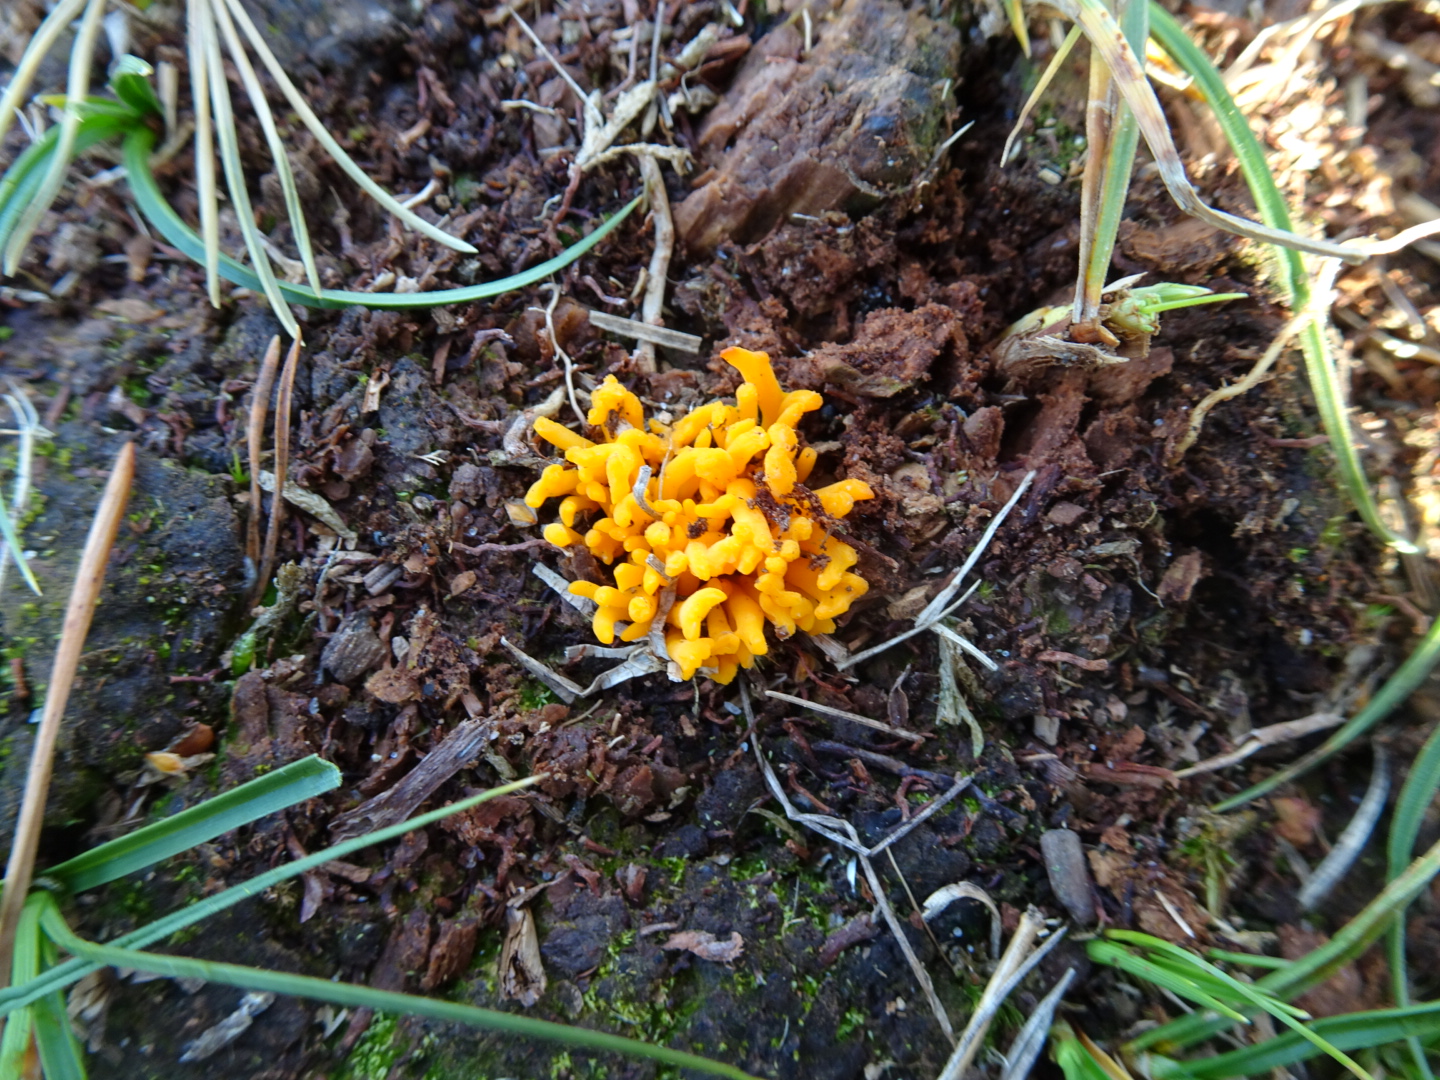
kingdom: Fungi
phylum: Basidiomycota
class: Dacrymycetes
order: Dacrymycetales
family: Dacrymycetaceae
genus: Calocera
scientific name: Calocera viscosa
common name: almindelig guldgaffel
